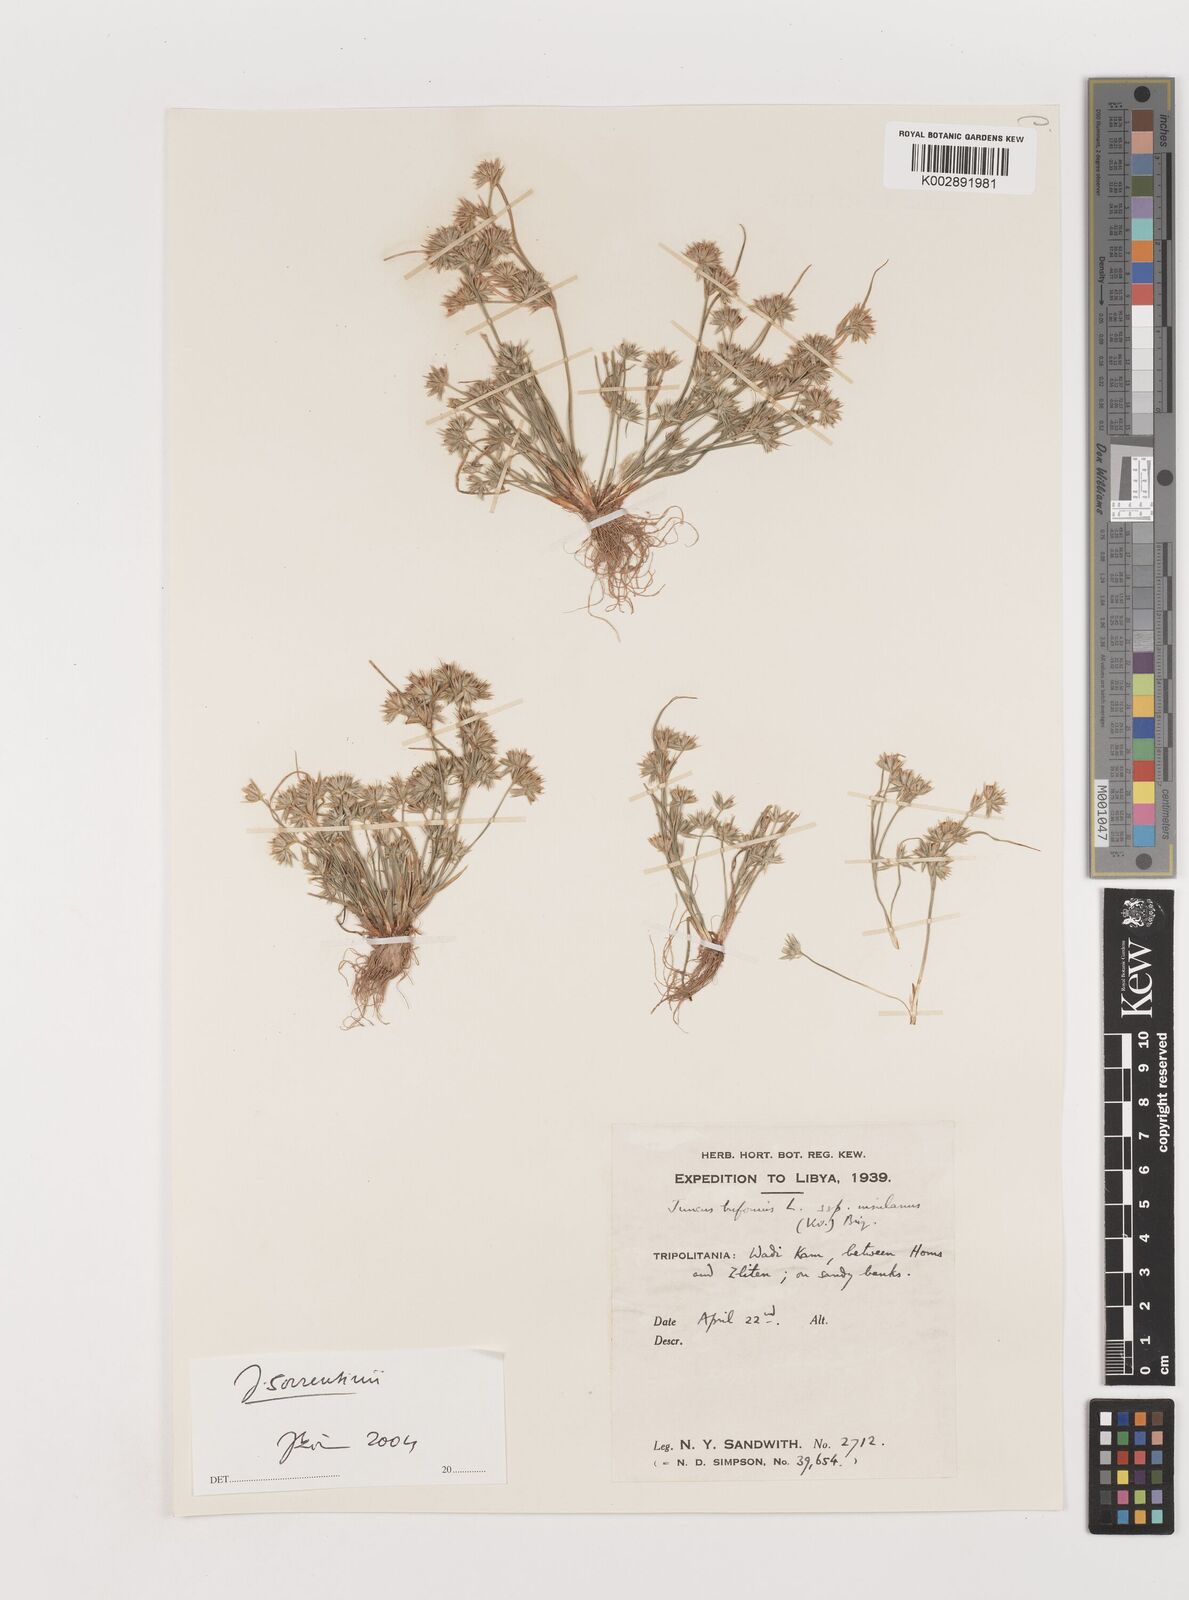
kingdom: Plantae
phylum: Tracheophyta
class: Liliopsida
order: Poales
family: Juncaceae
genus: Juncus
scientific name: Juncus bufonius
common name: Toad rush
